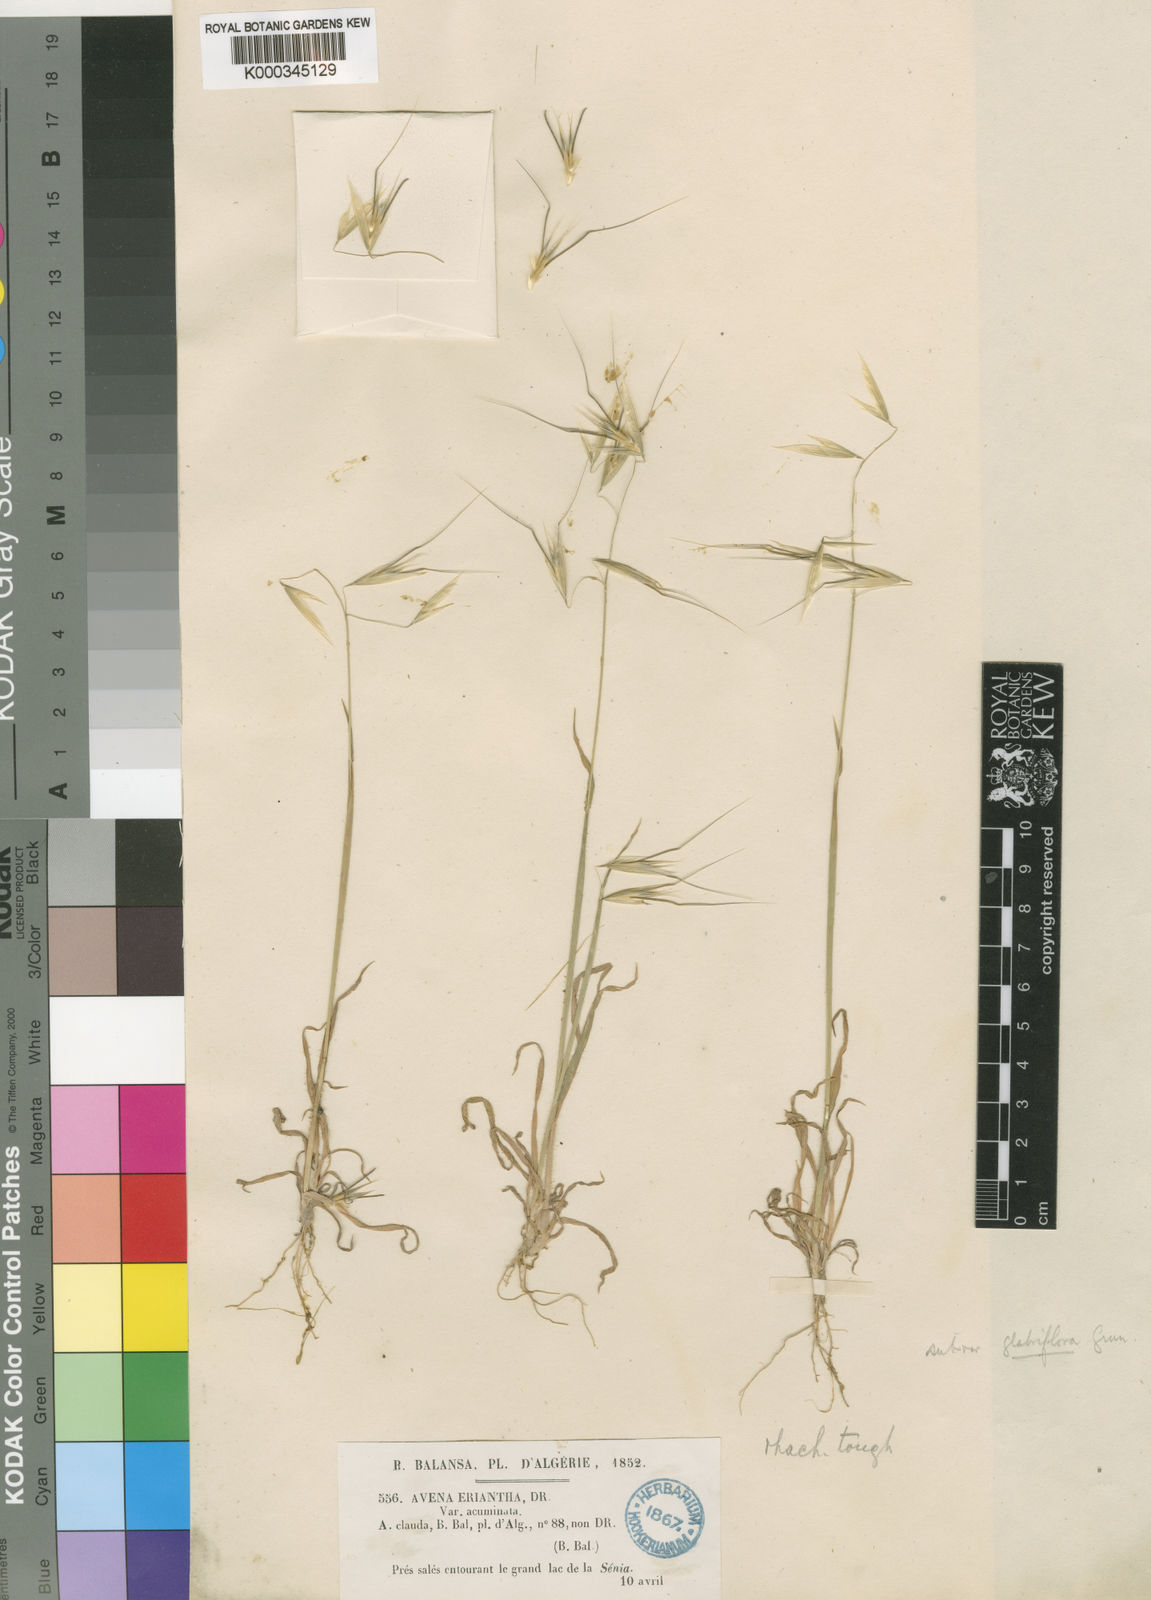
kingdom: Plantae
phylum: Tracheophyta
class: Liliopsida
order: Poales
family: Poaceae
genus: Avena
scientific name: Avena eriantha
